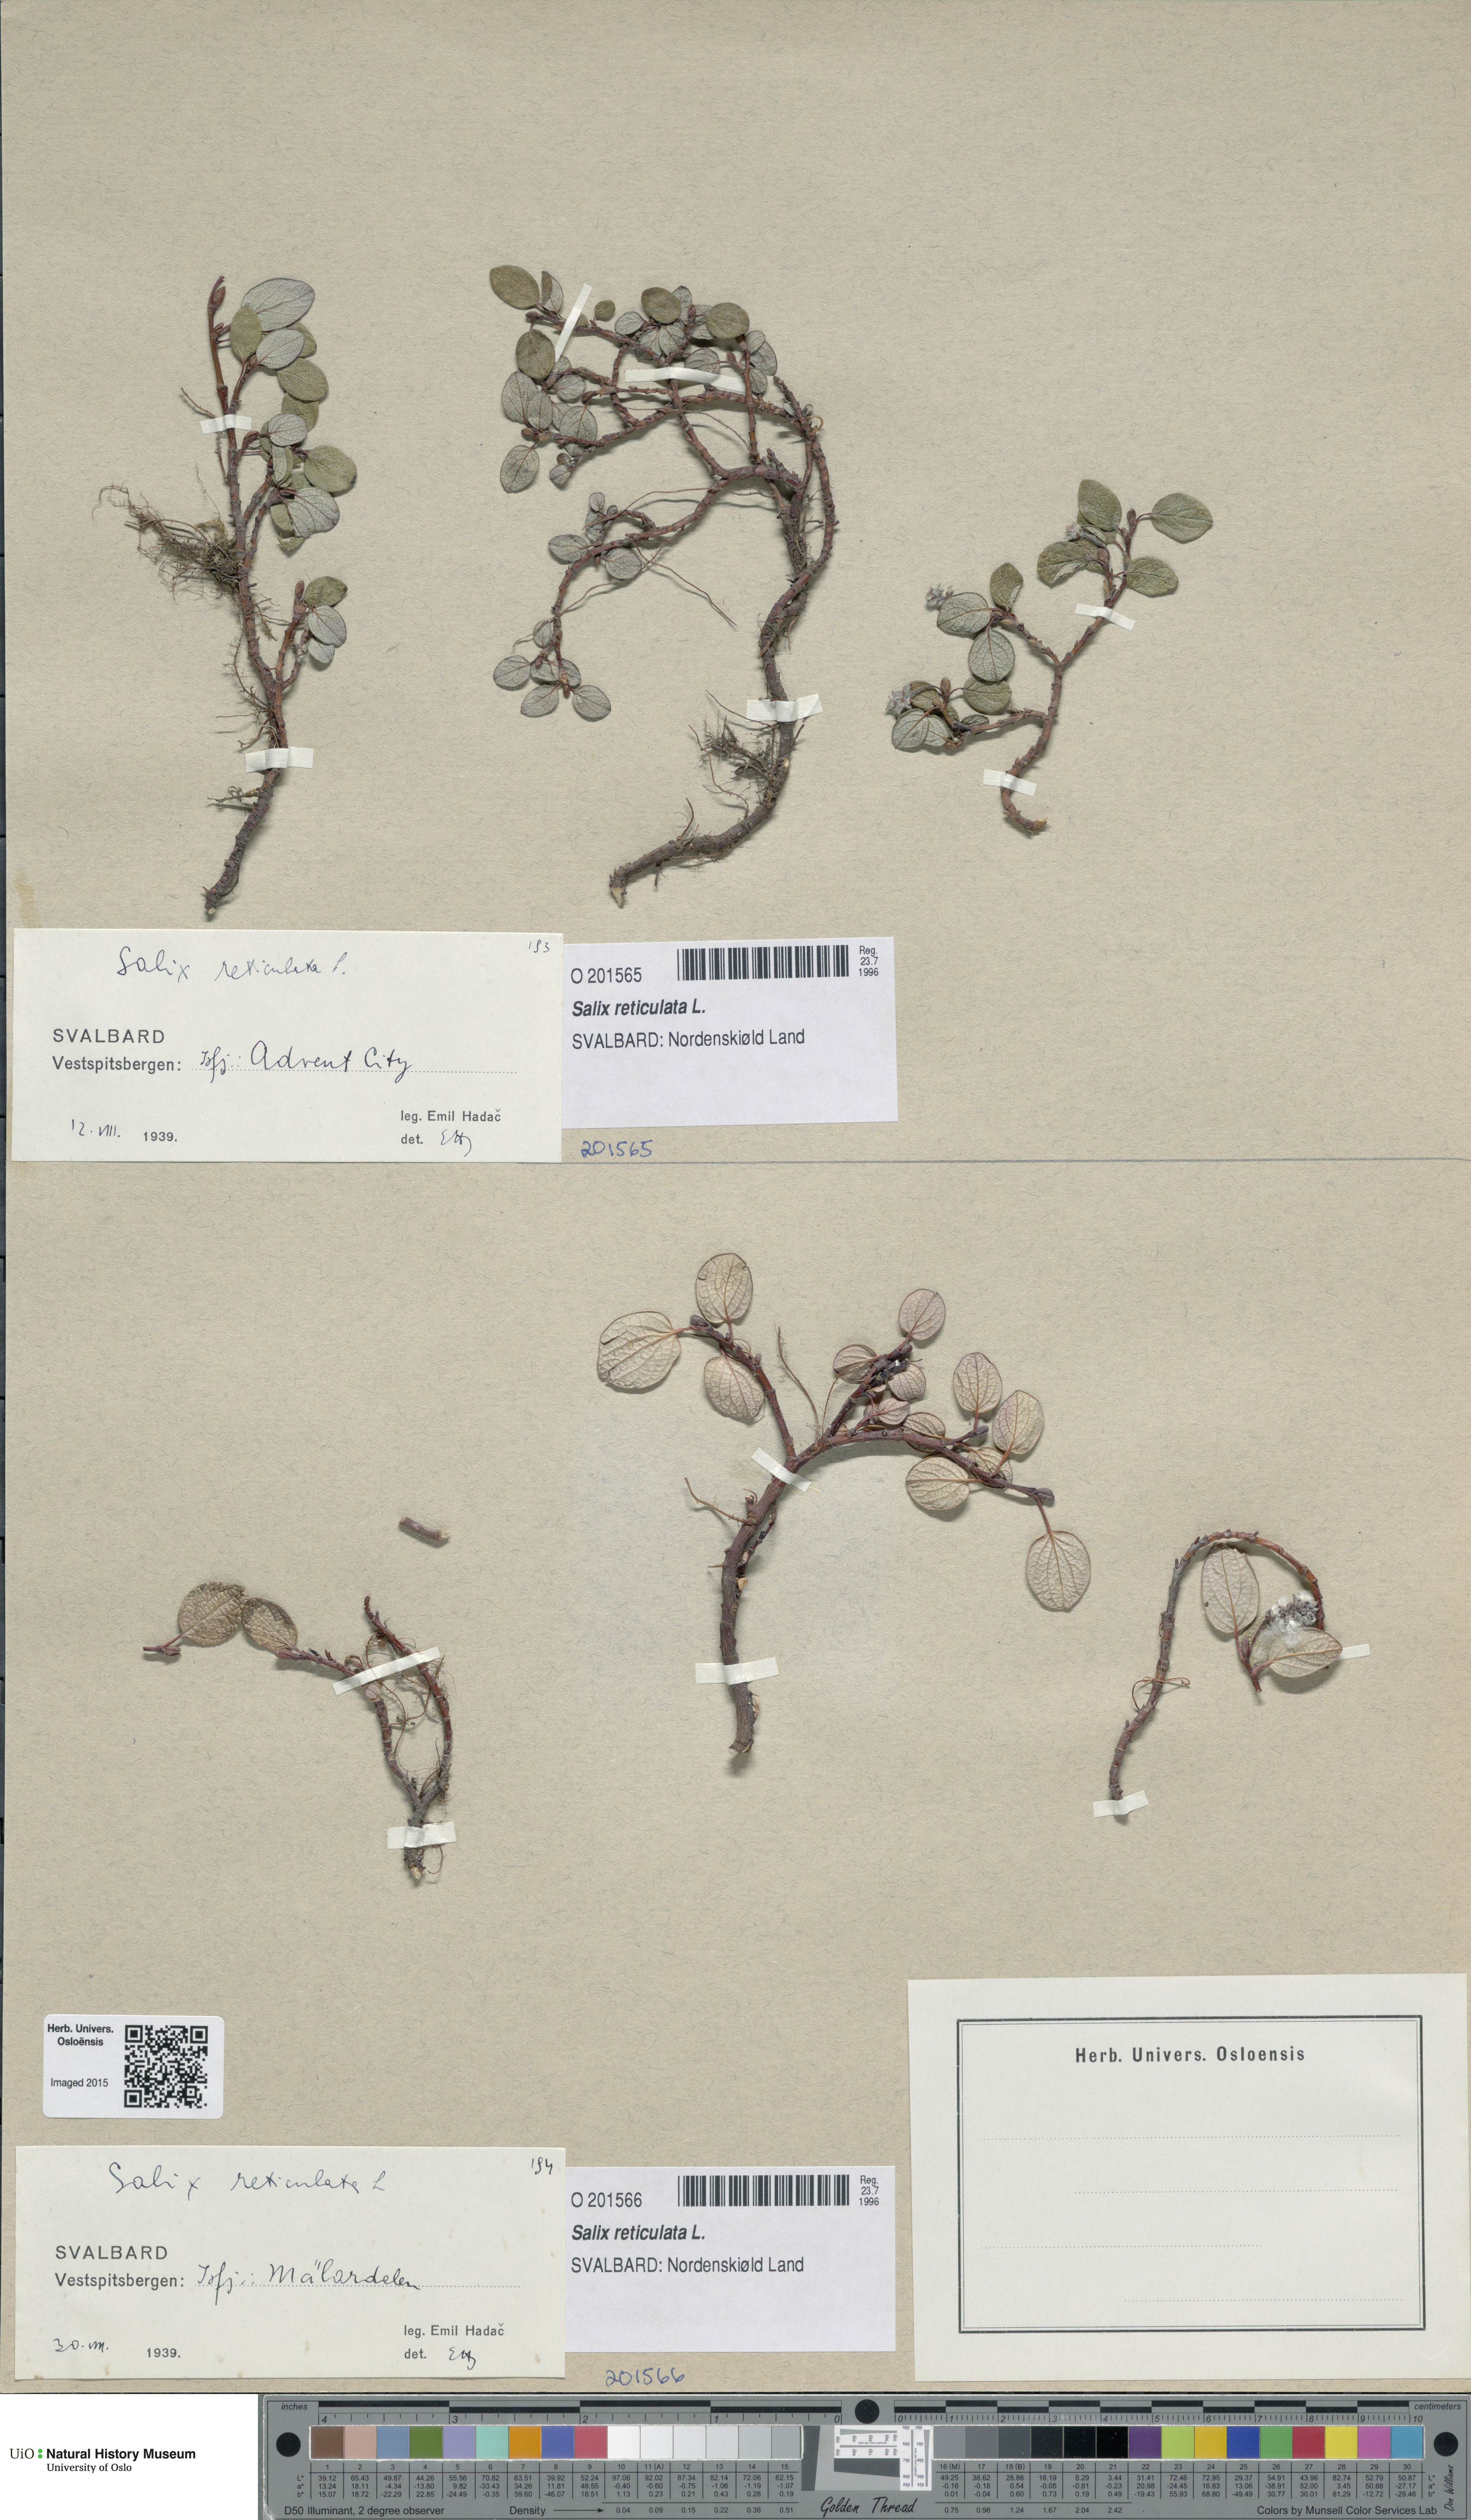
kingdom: Plantae
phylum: Tracheophyta
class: Magnoliopsida
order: Malpighiales
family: Salicaceae
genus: Salix
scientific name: Salix reticulata
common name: Net-leaved willow
